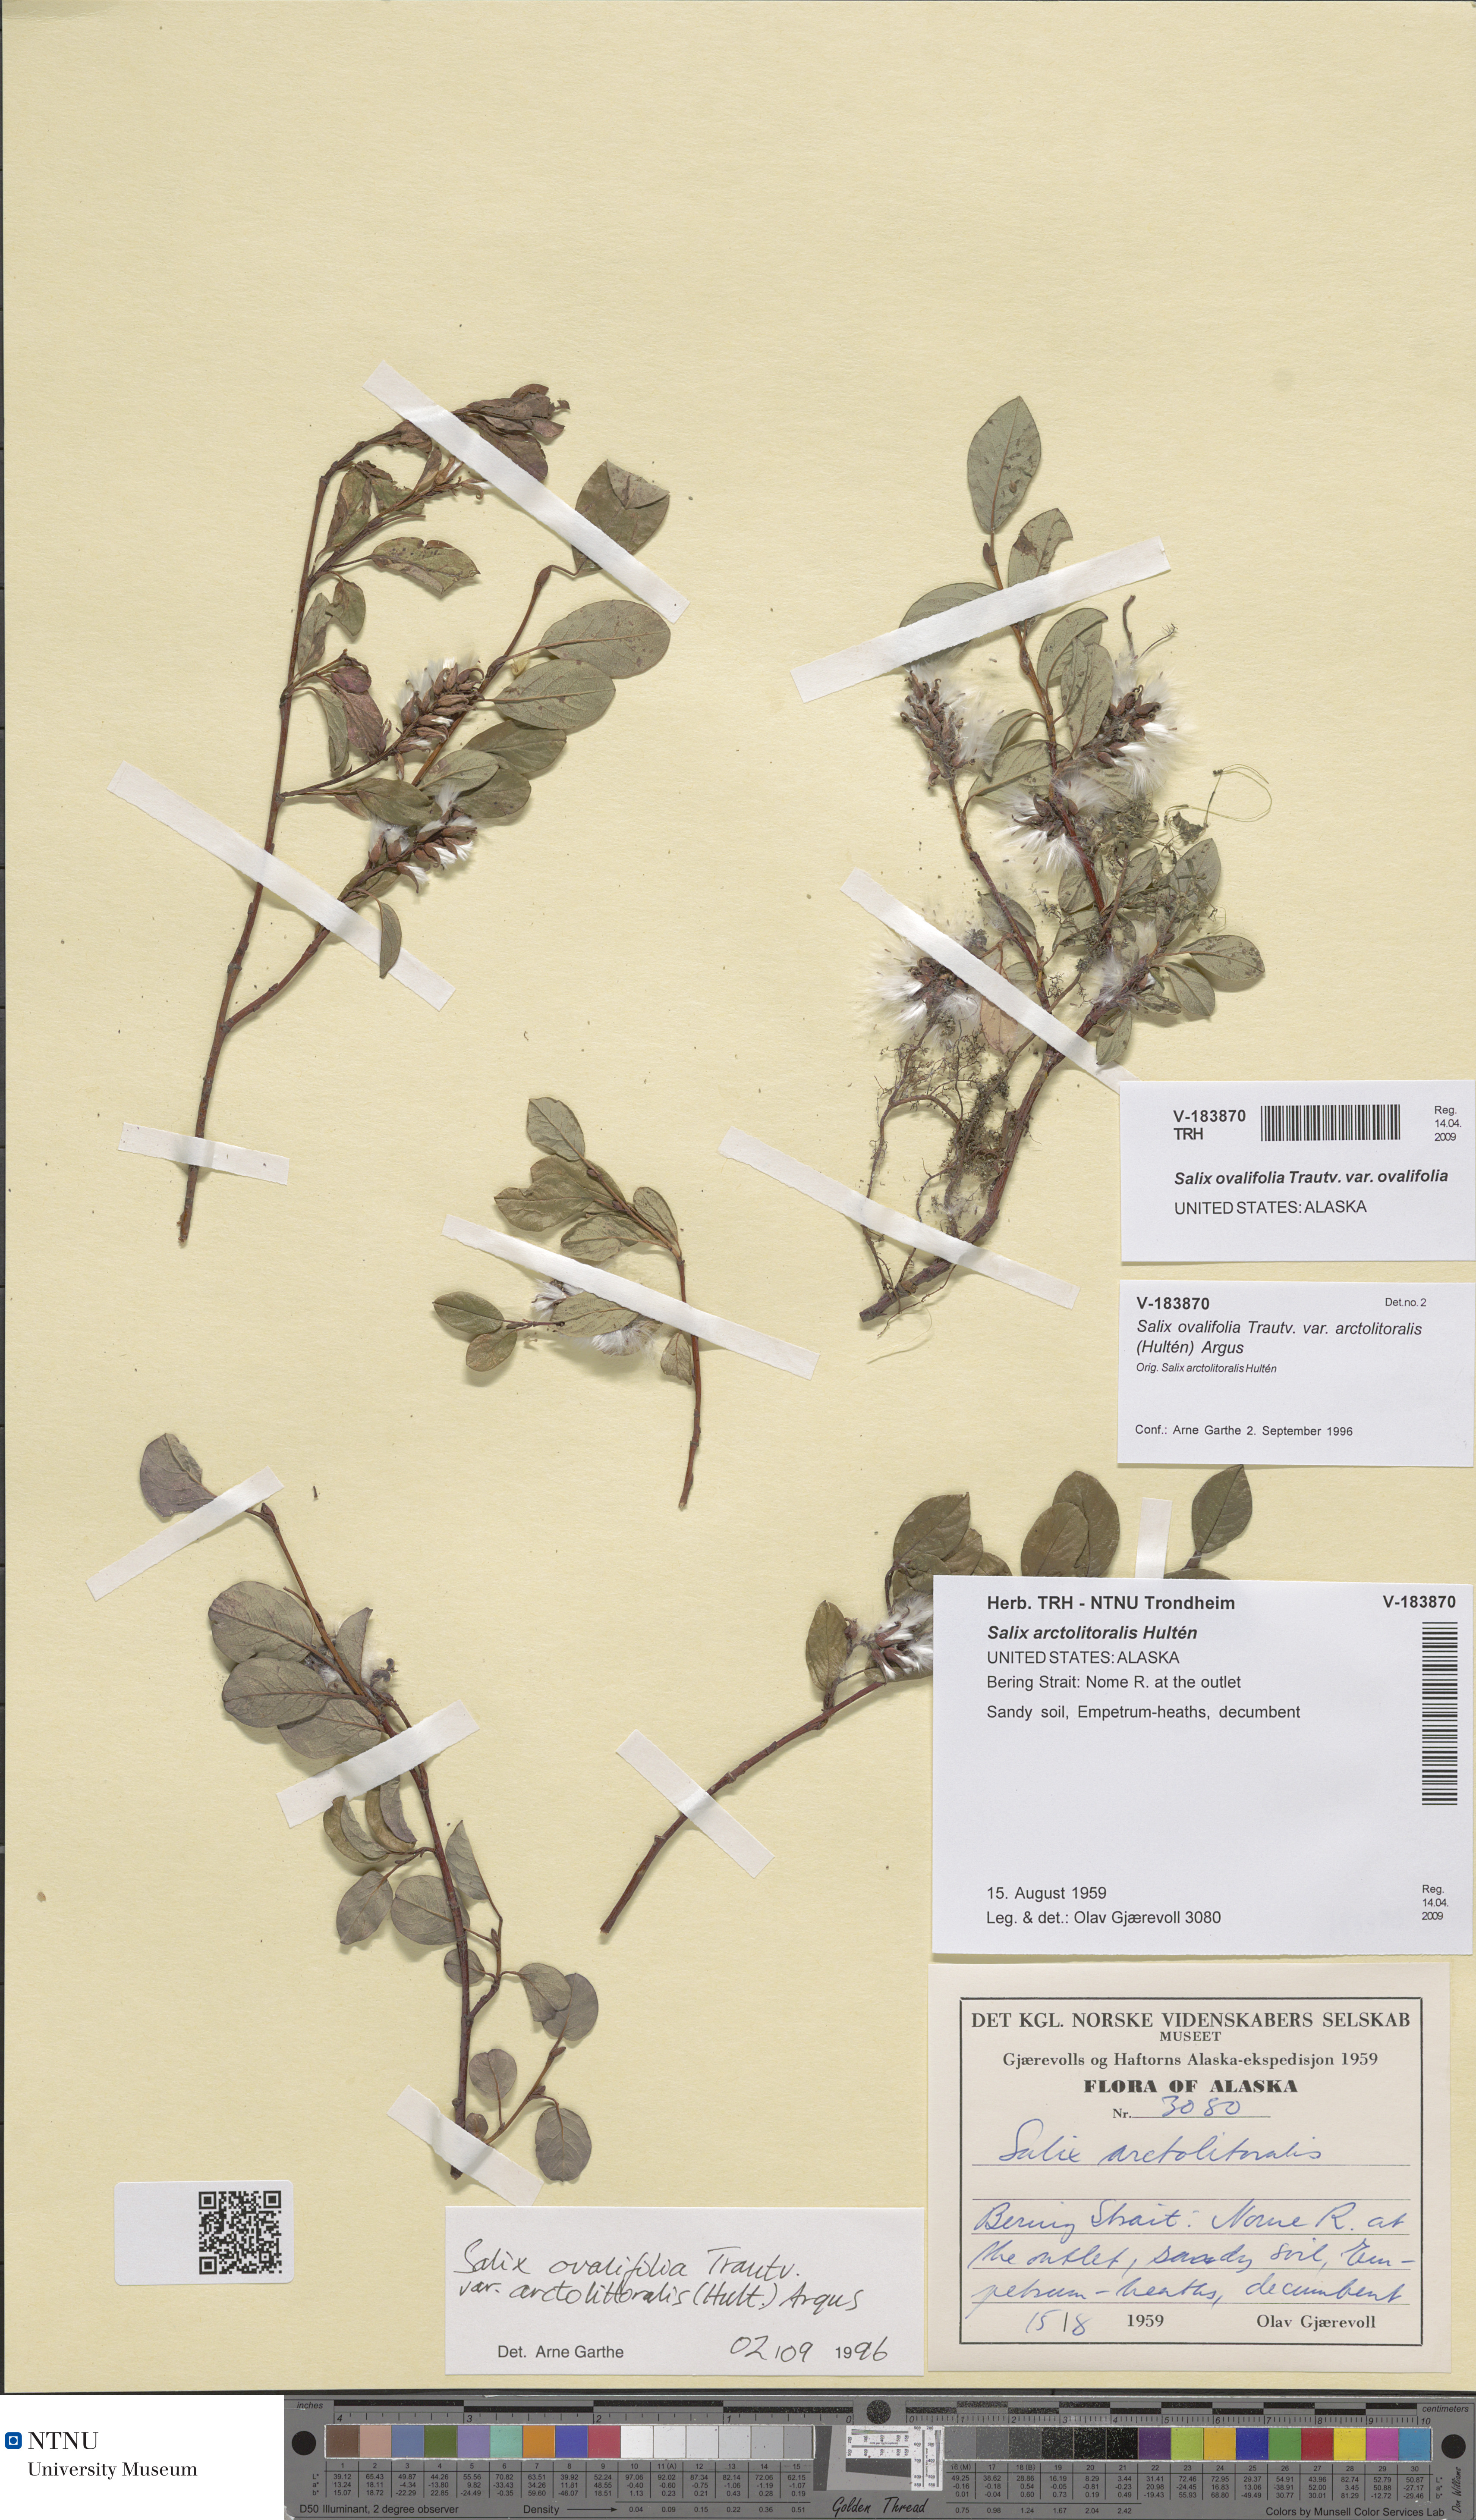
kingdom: Plantae
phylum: Tracheophyta
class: Magnoliopsida
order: Malpighiales
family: Salicaceae
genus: Salix
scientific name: Salix ovalifolia
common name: Arctic seashore willow
